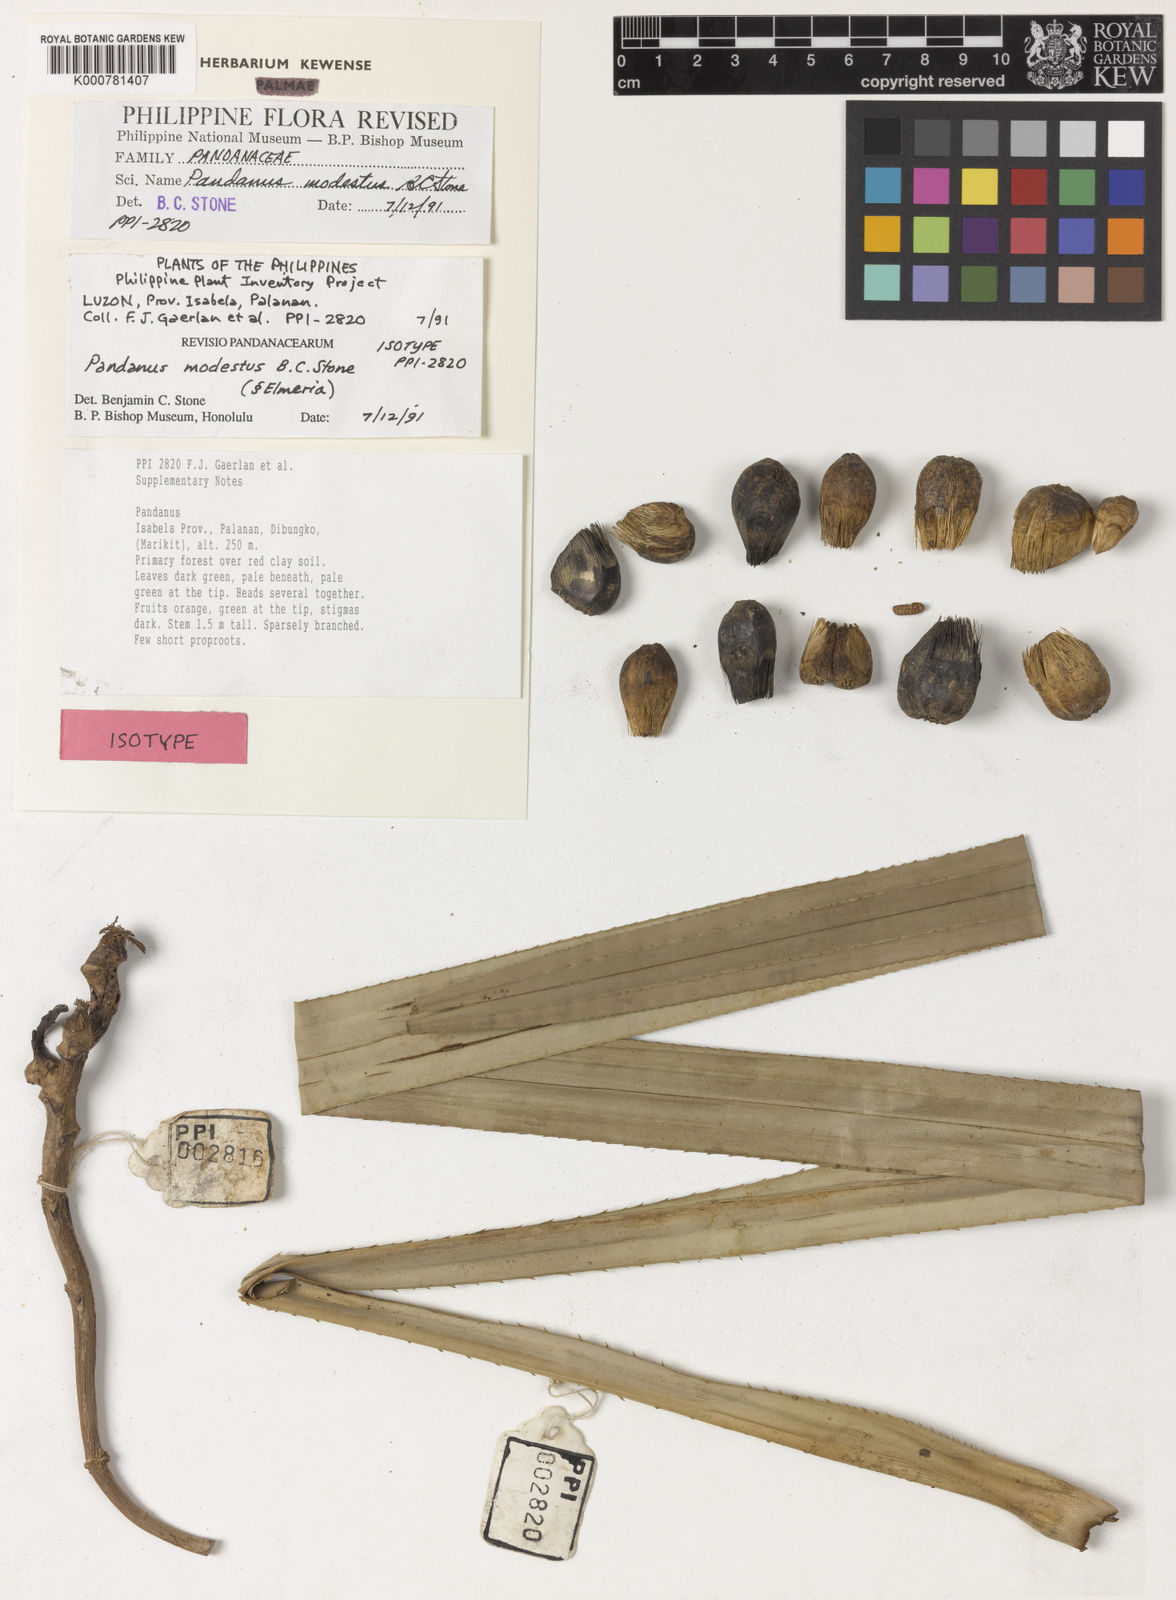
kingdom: Plantae
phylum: Tracheophyta
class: Liliopsida
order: Pandanales
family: Pandanaceae
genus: Pandanus
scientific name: Pandanus
